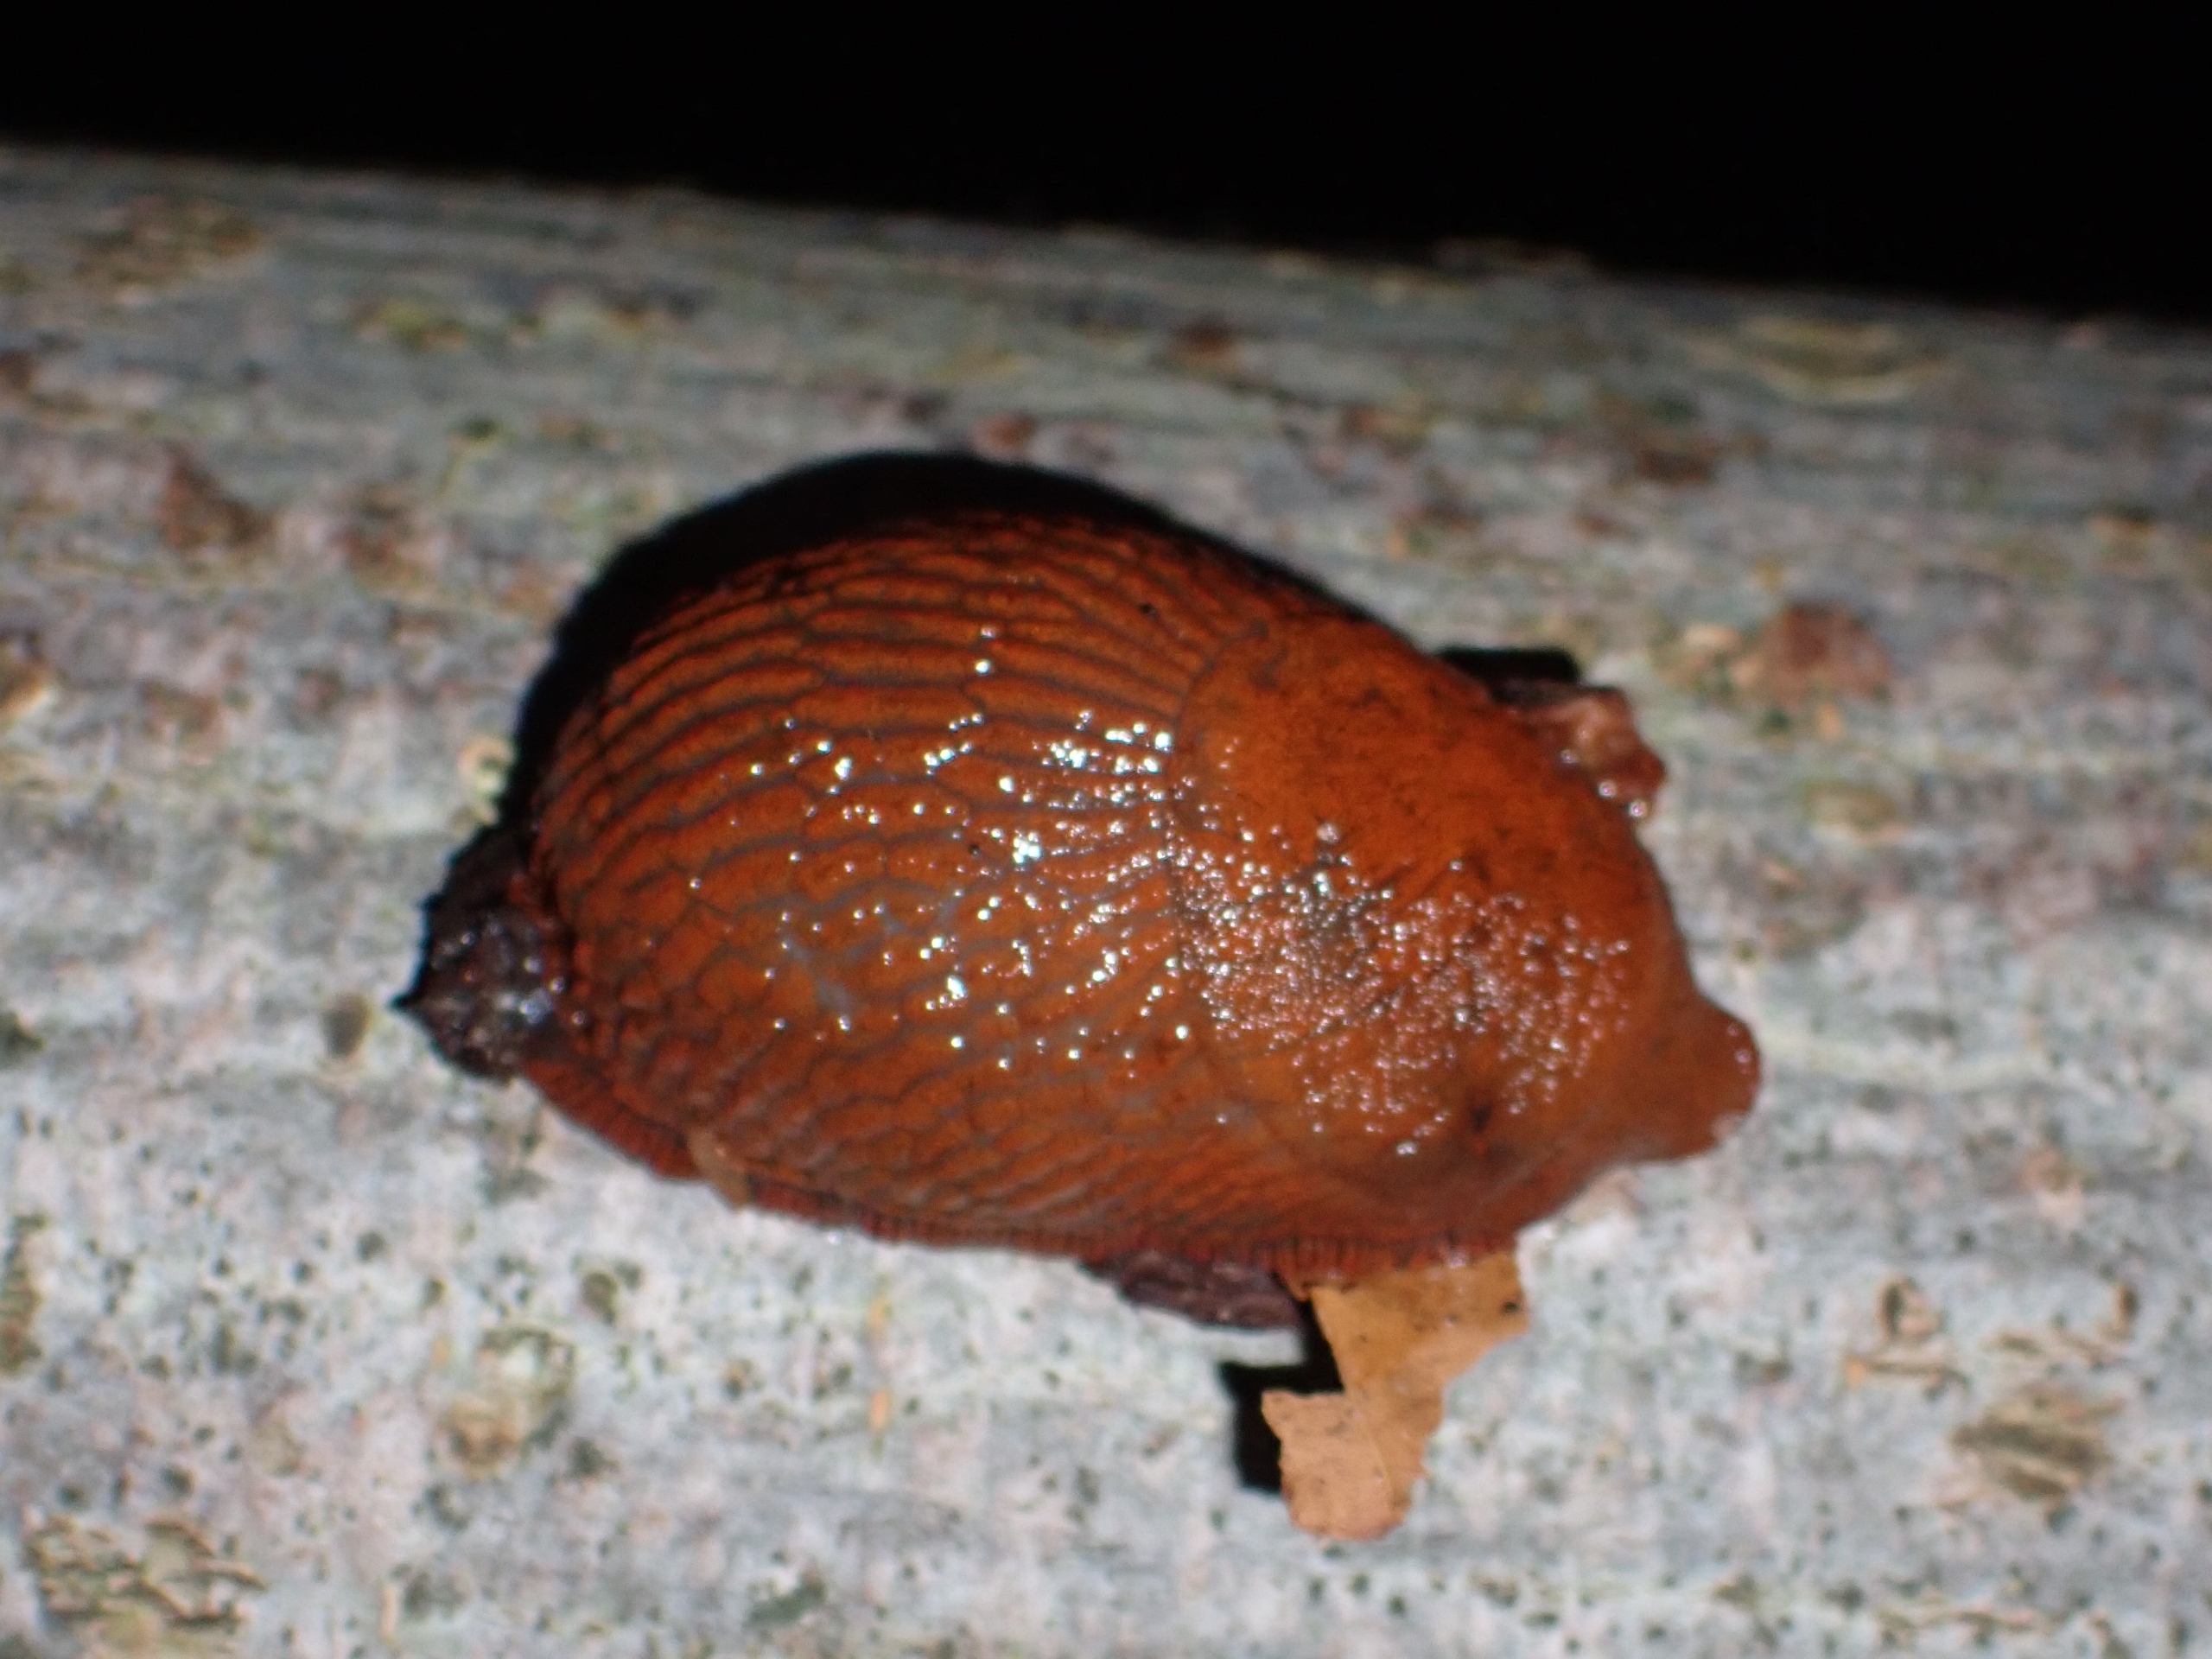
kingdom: Animalia
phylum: Mollusca
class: Gastropoda
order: Stylommatophora
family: Arionidae
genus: Arion
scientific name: Arion rufus
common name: Rød skovsnegl
